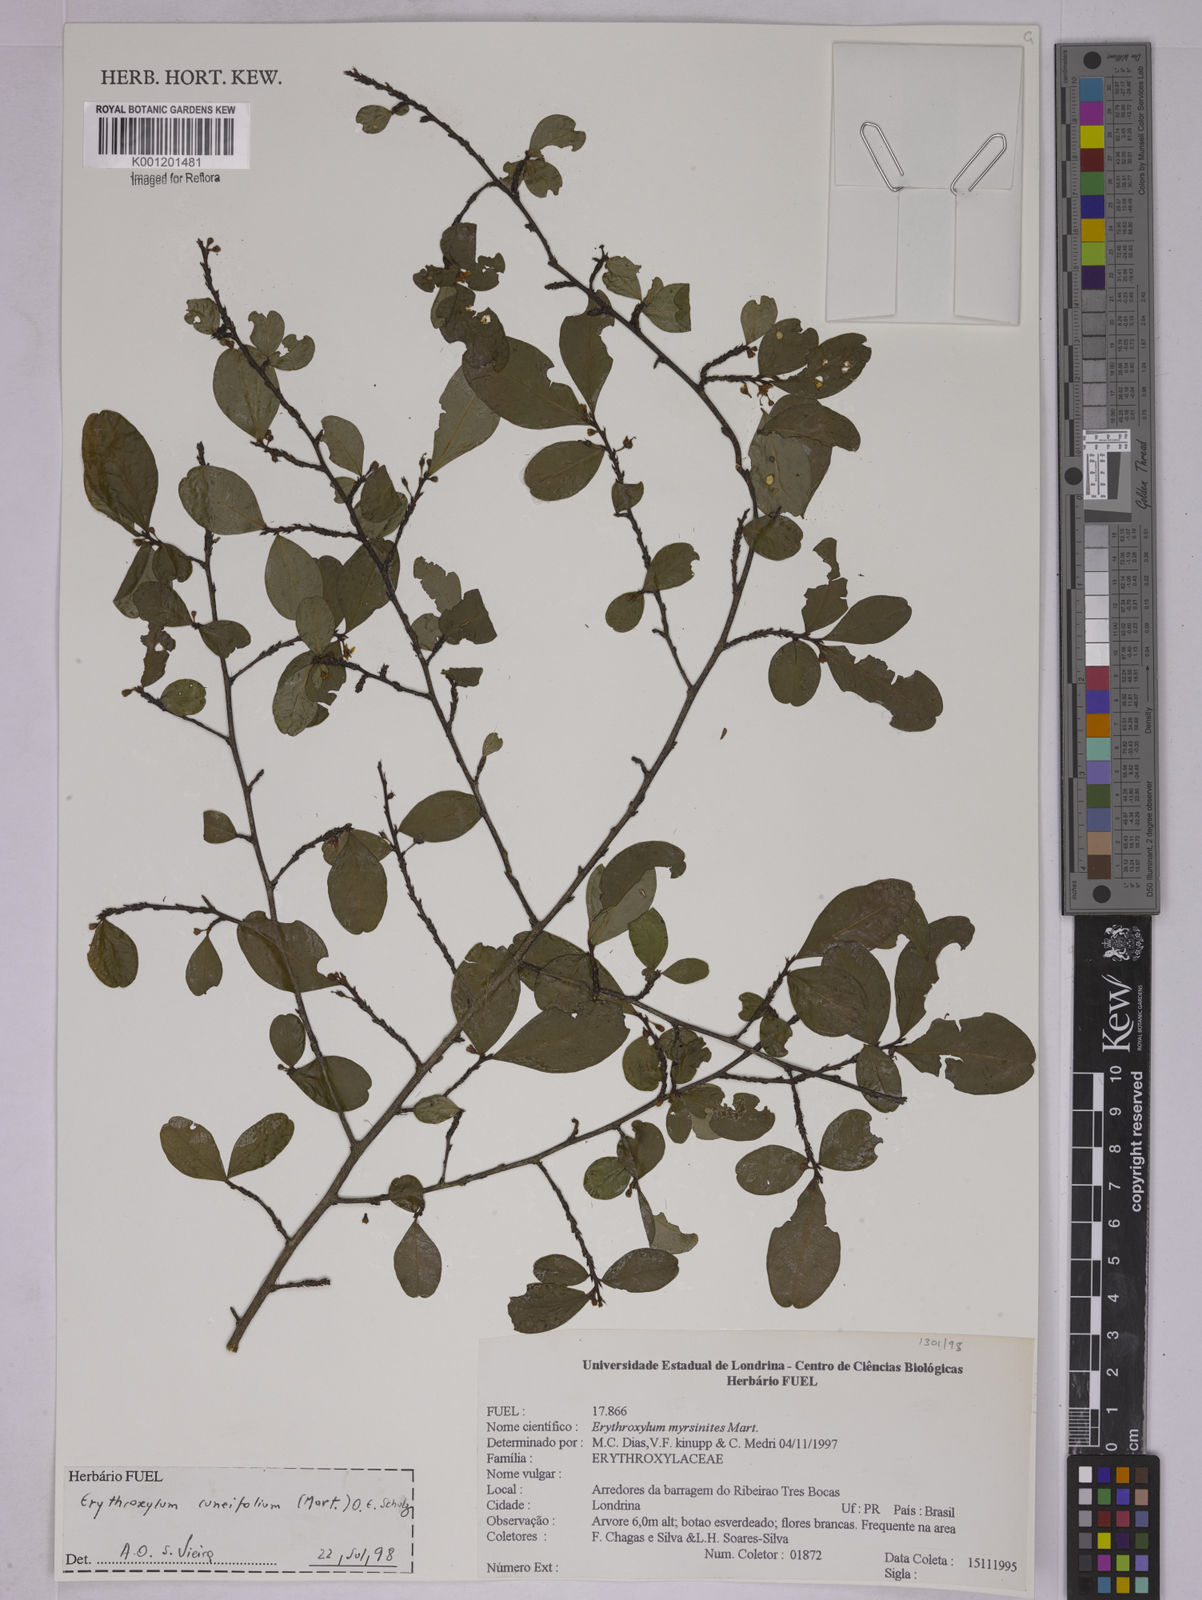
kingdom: Plantae
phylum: Tracheophyta
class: Magnoliopsida
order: Malpighiales
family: Erythroxylaceae
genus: Erythroxylum
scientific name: Erythroxylum cuneifolium
